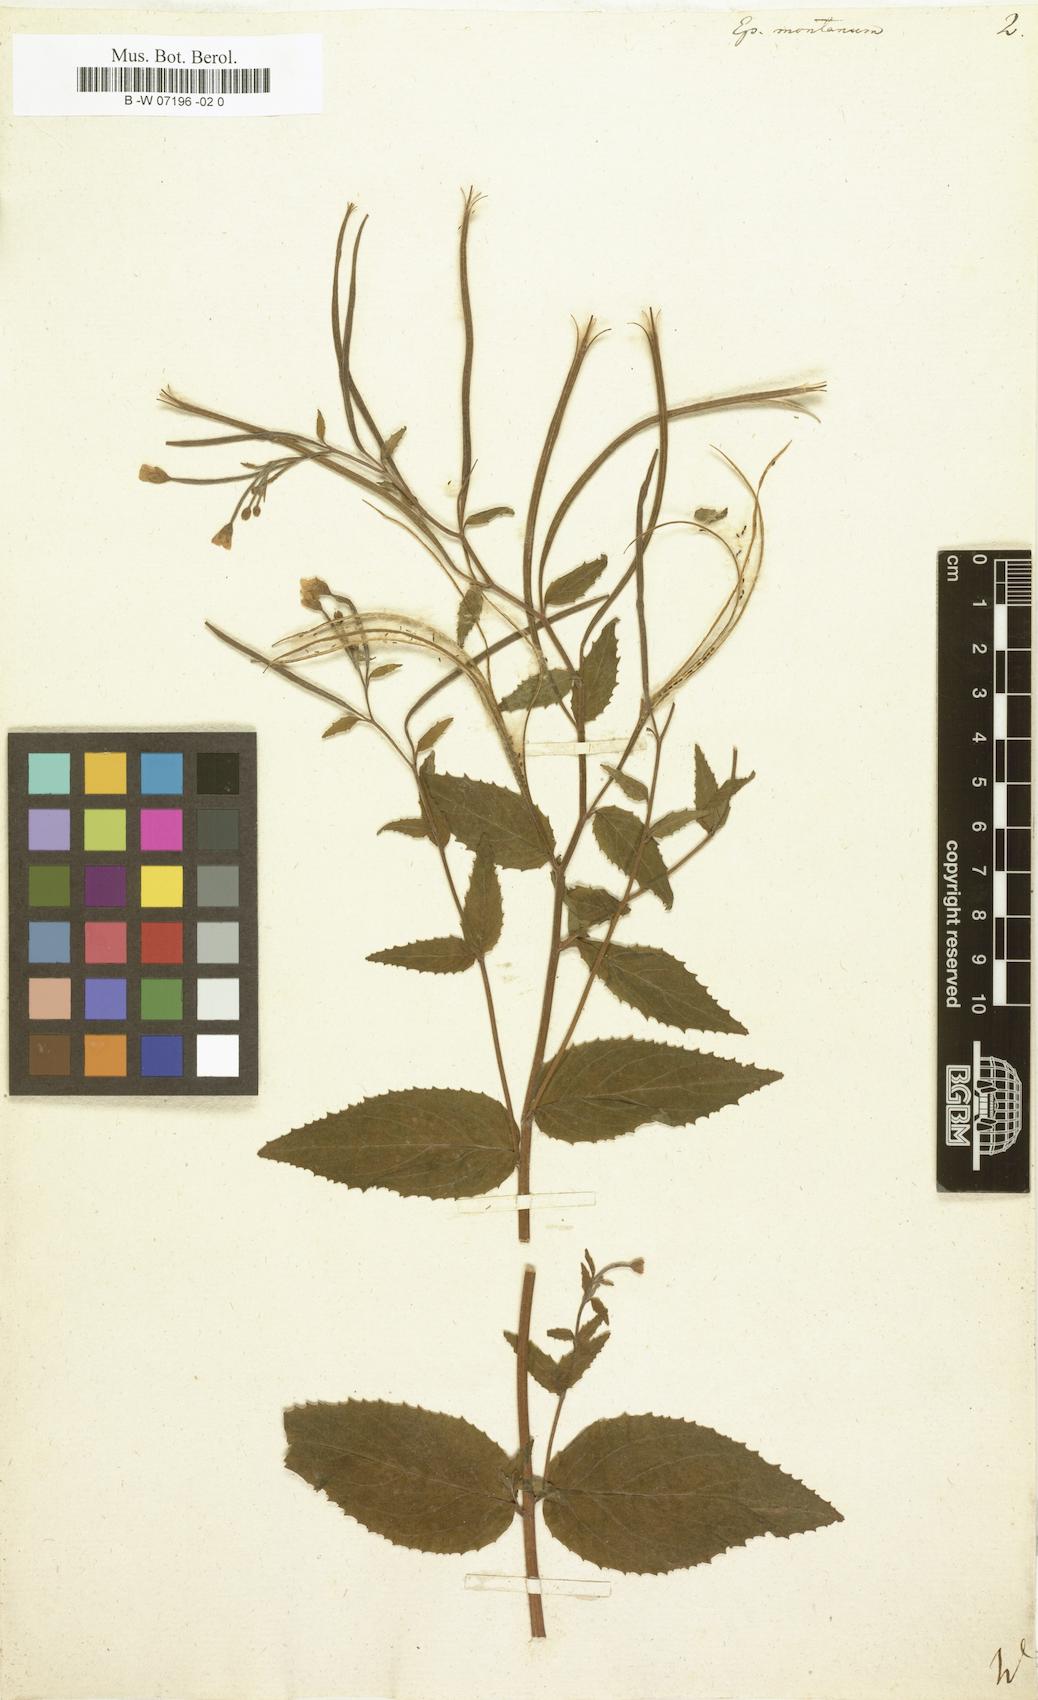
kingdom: Plantae
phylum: Tracheophyta
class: Magnoliopsida
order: Myrtales
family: Onagraceae
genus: Epilobium
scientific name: Epilobium montanum
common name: Broad-leaved willowherb
